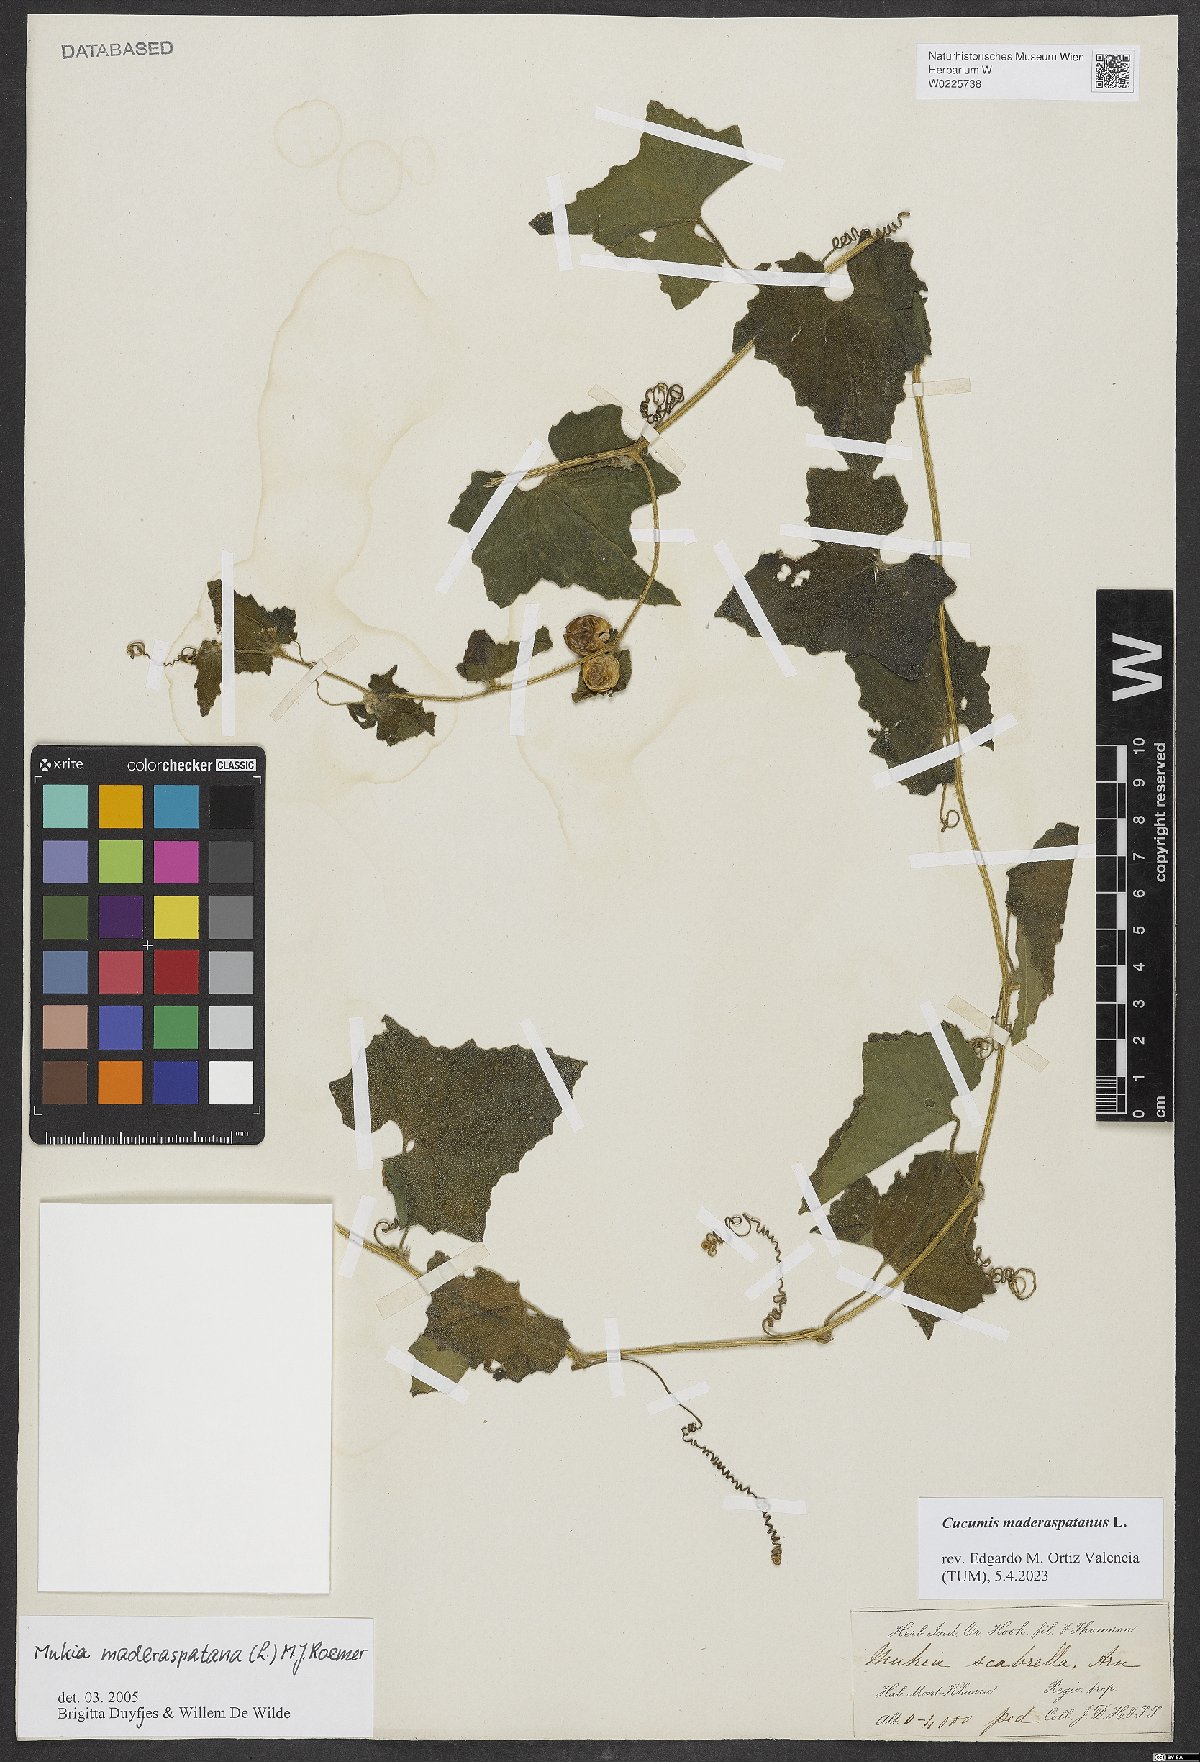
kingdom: Plantae
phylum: Tracheophyta
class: Magnoliopsida
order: Cucurbitales
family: Cucurbitaceae
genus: Cucumis
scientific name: Cucumis maderaspatanus
